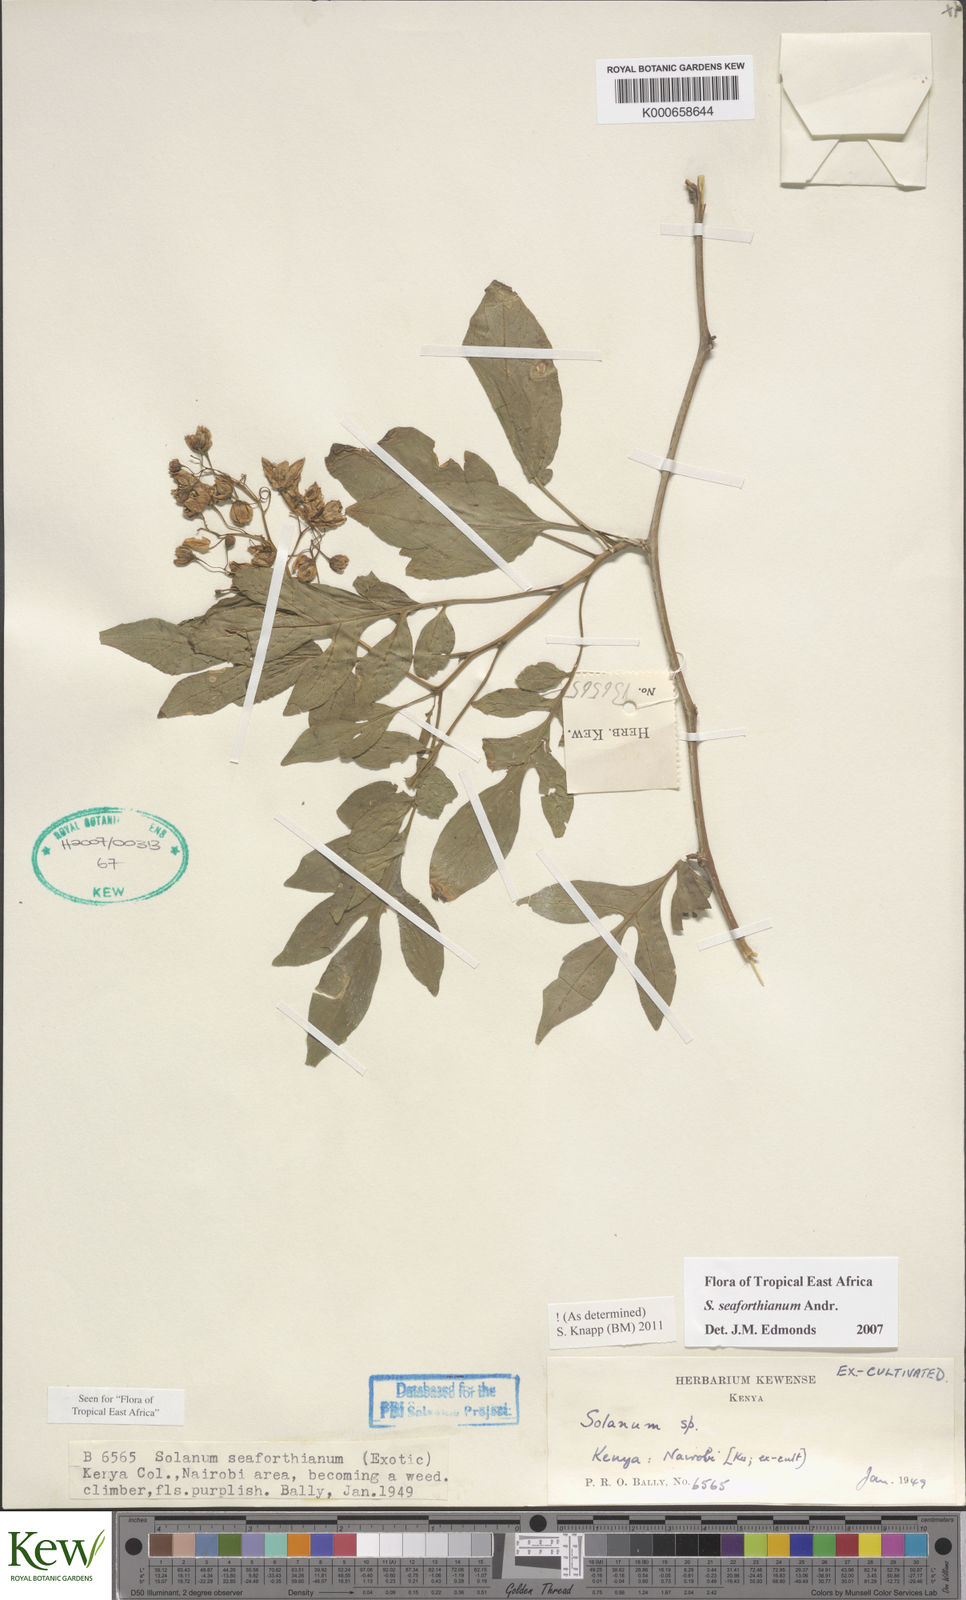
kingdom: Plantae
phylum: Tracheophyta
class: Magnoliopsida
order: Solanales
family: Solanaceae
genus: Solanum
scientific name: Solanum seaforthianum
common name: Brazilian nightshade
